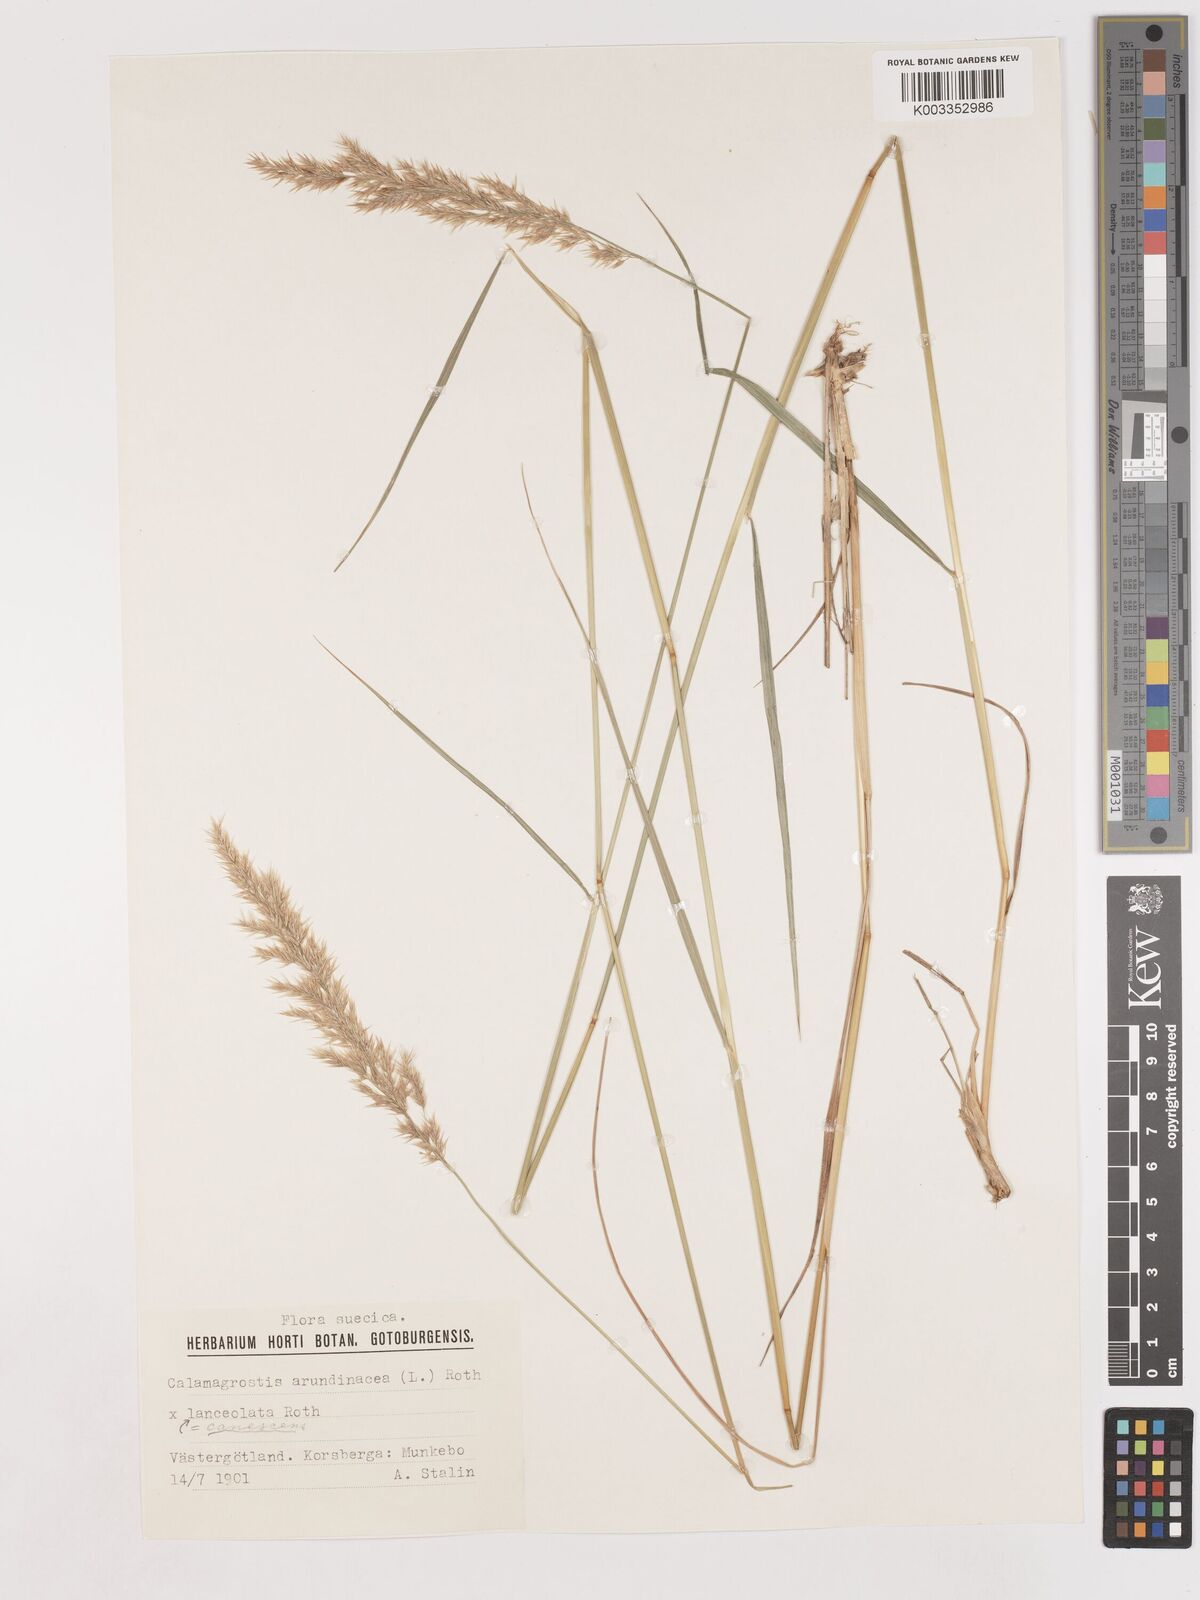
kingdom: Plantae
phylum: Tracheophyta
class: Liliopsida
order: Poales
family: Poaceae
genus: Calamagrostis
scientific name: Calamagrostis canescens
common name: Purple small-reed
